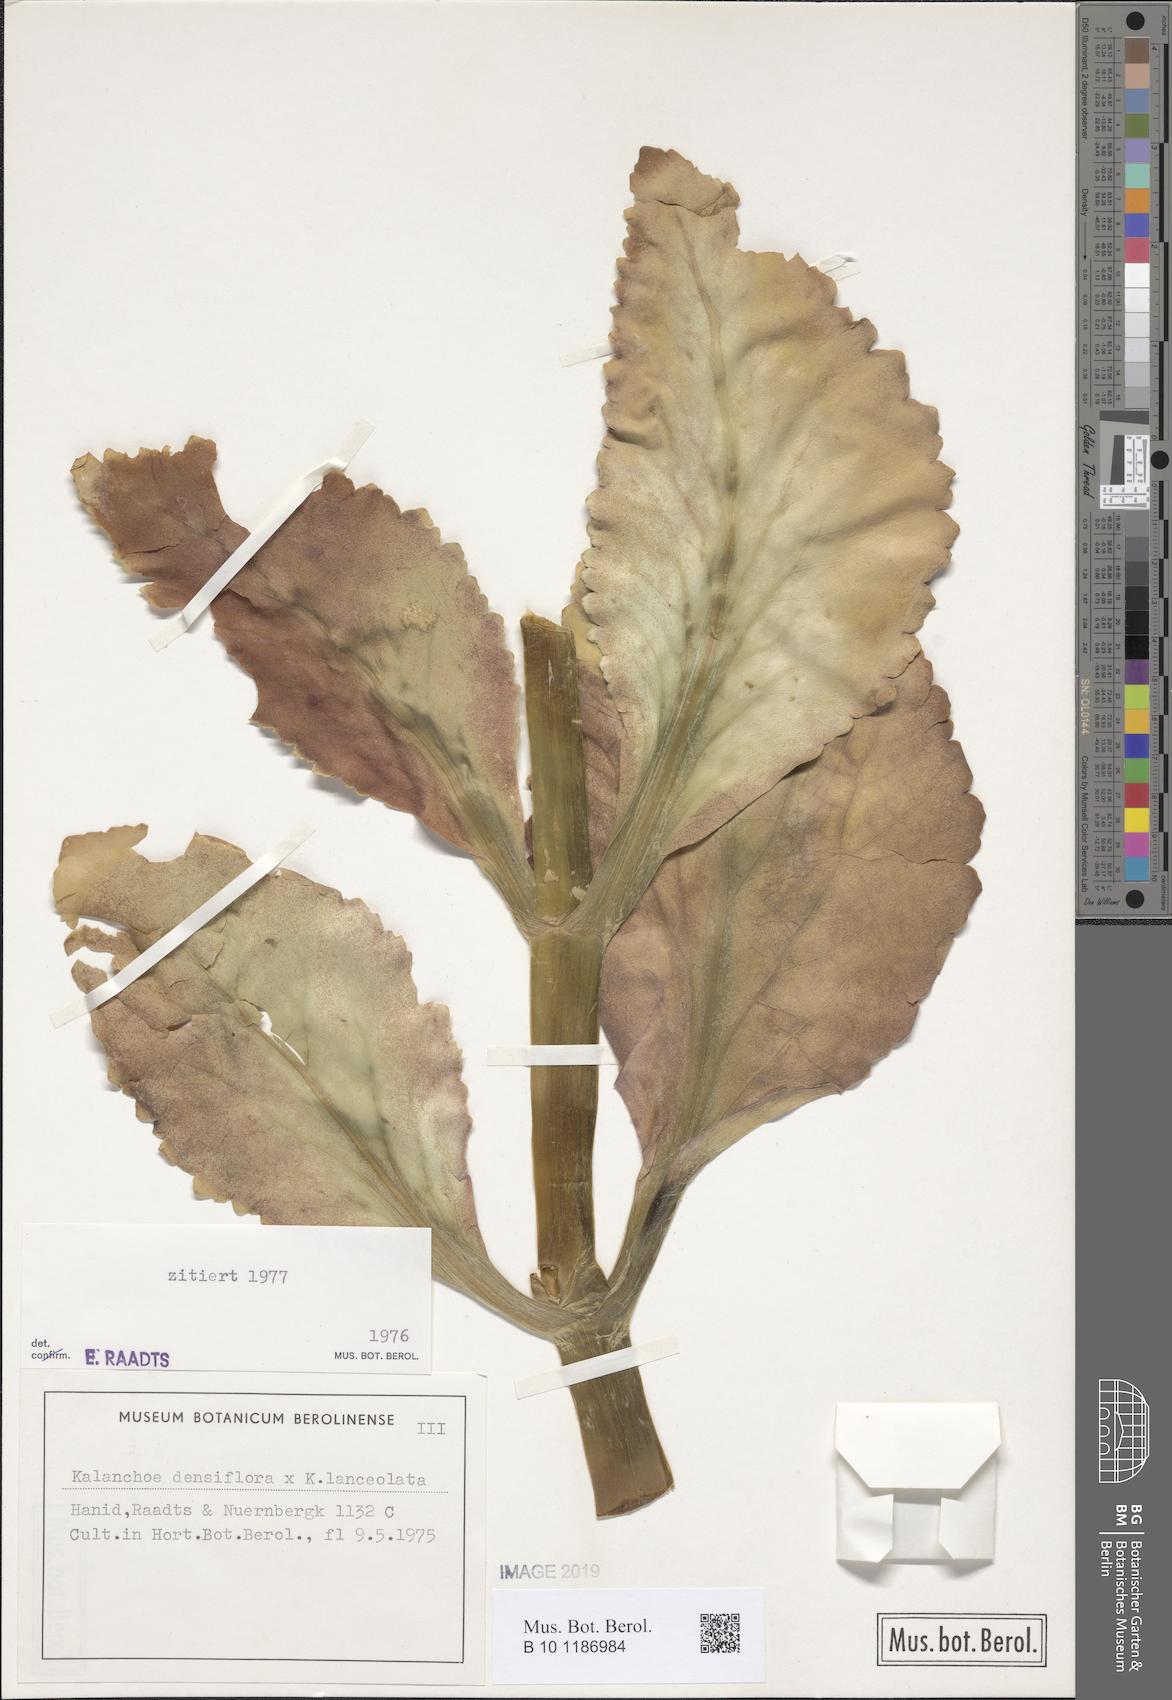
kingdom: Plantae
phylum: Tracheophyta
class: Magnoliopsida
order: Saxifragales
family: Crassulaceae
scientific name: Crassulaceae
